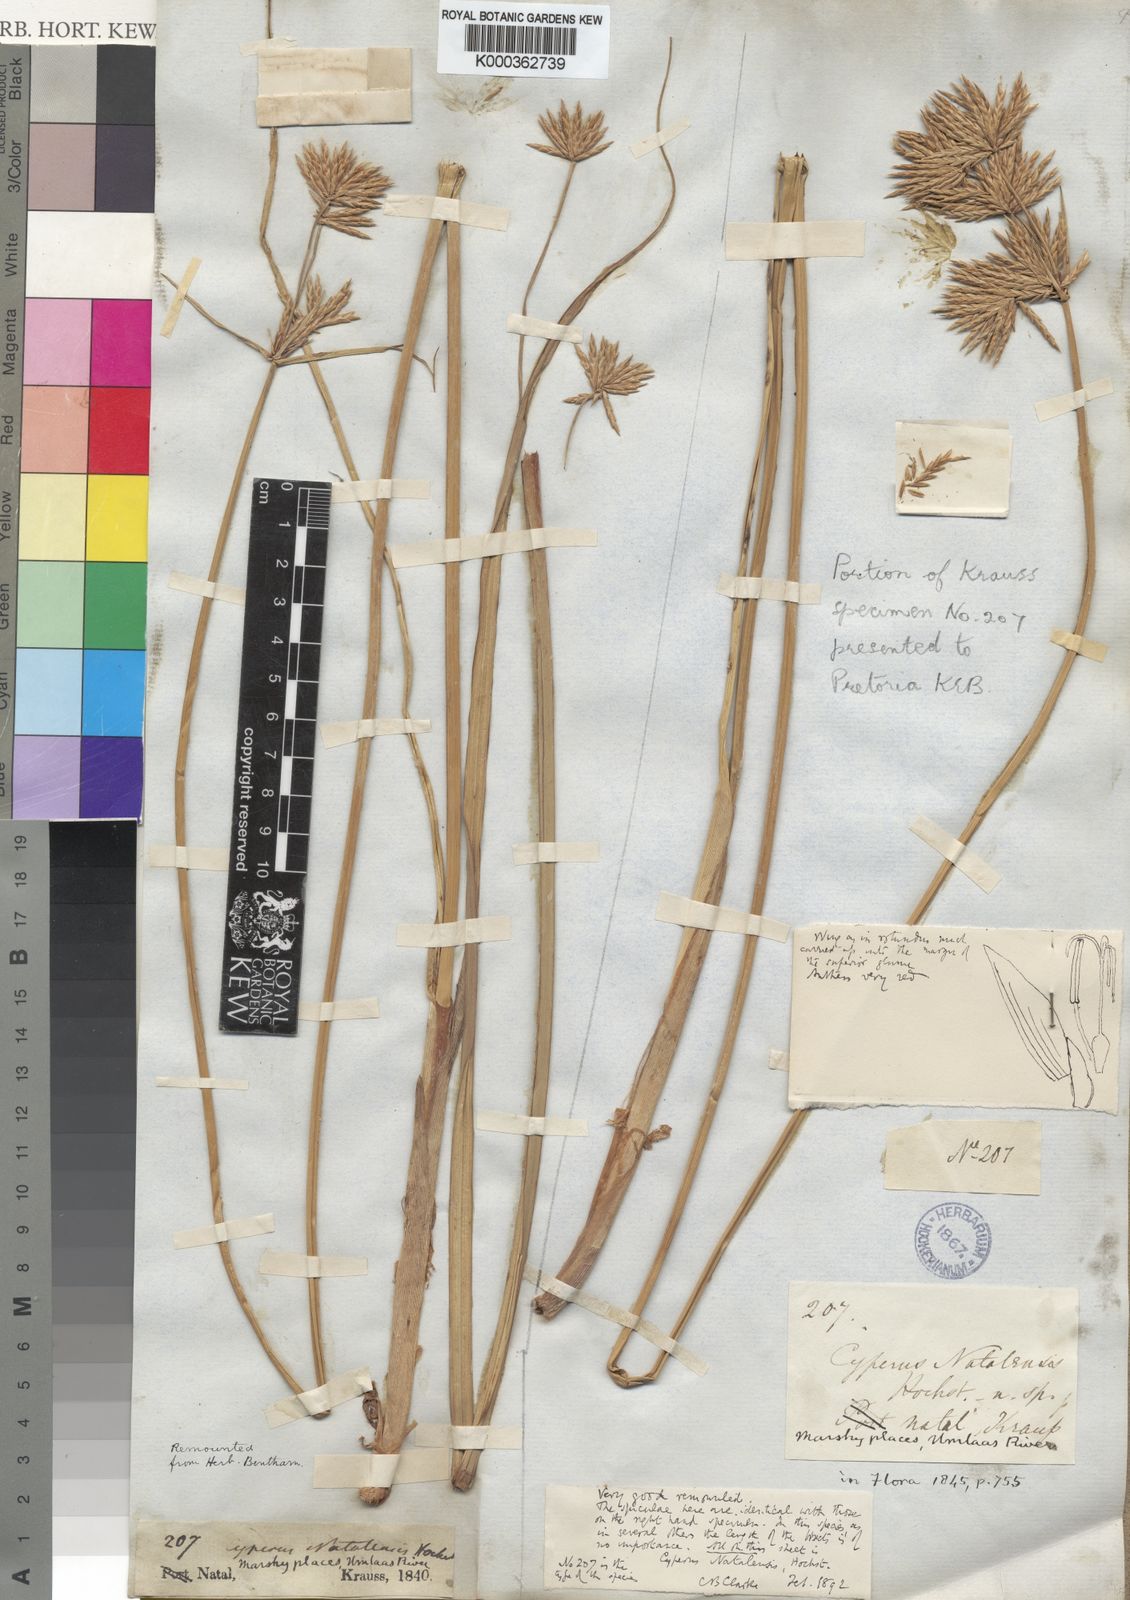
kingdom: Plantae
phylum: Tracheophyta
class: Liliopsida
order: Poales
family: Cyperaceae
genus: Cyperus
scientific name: Cyperus natalensis
